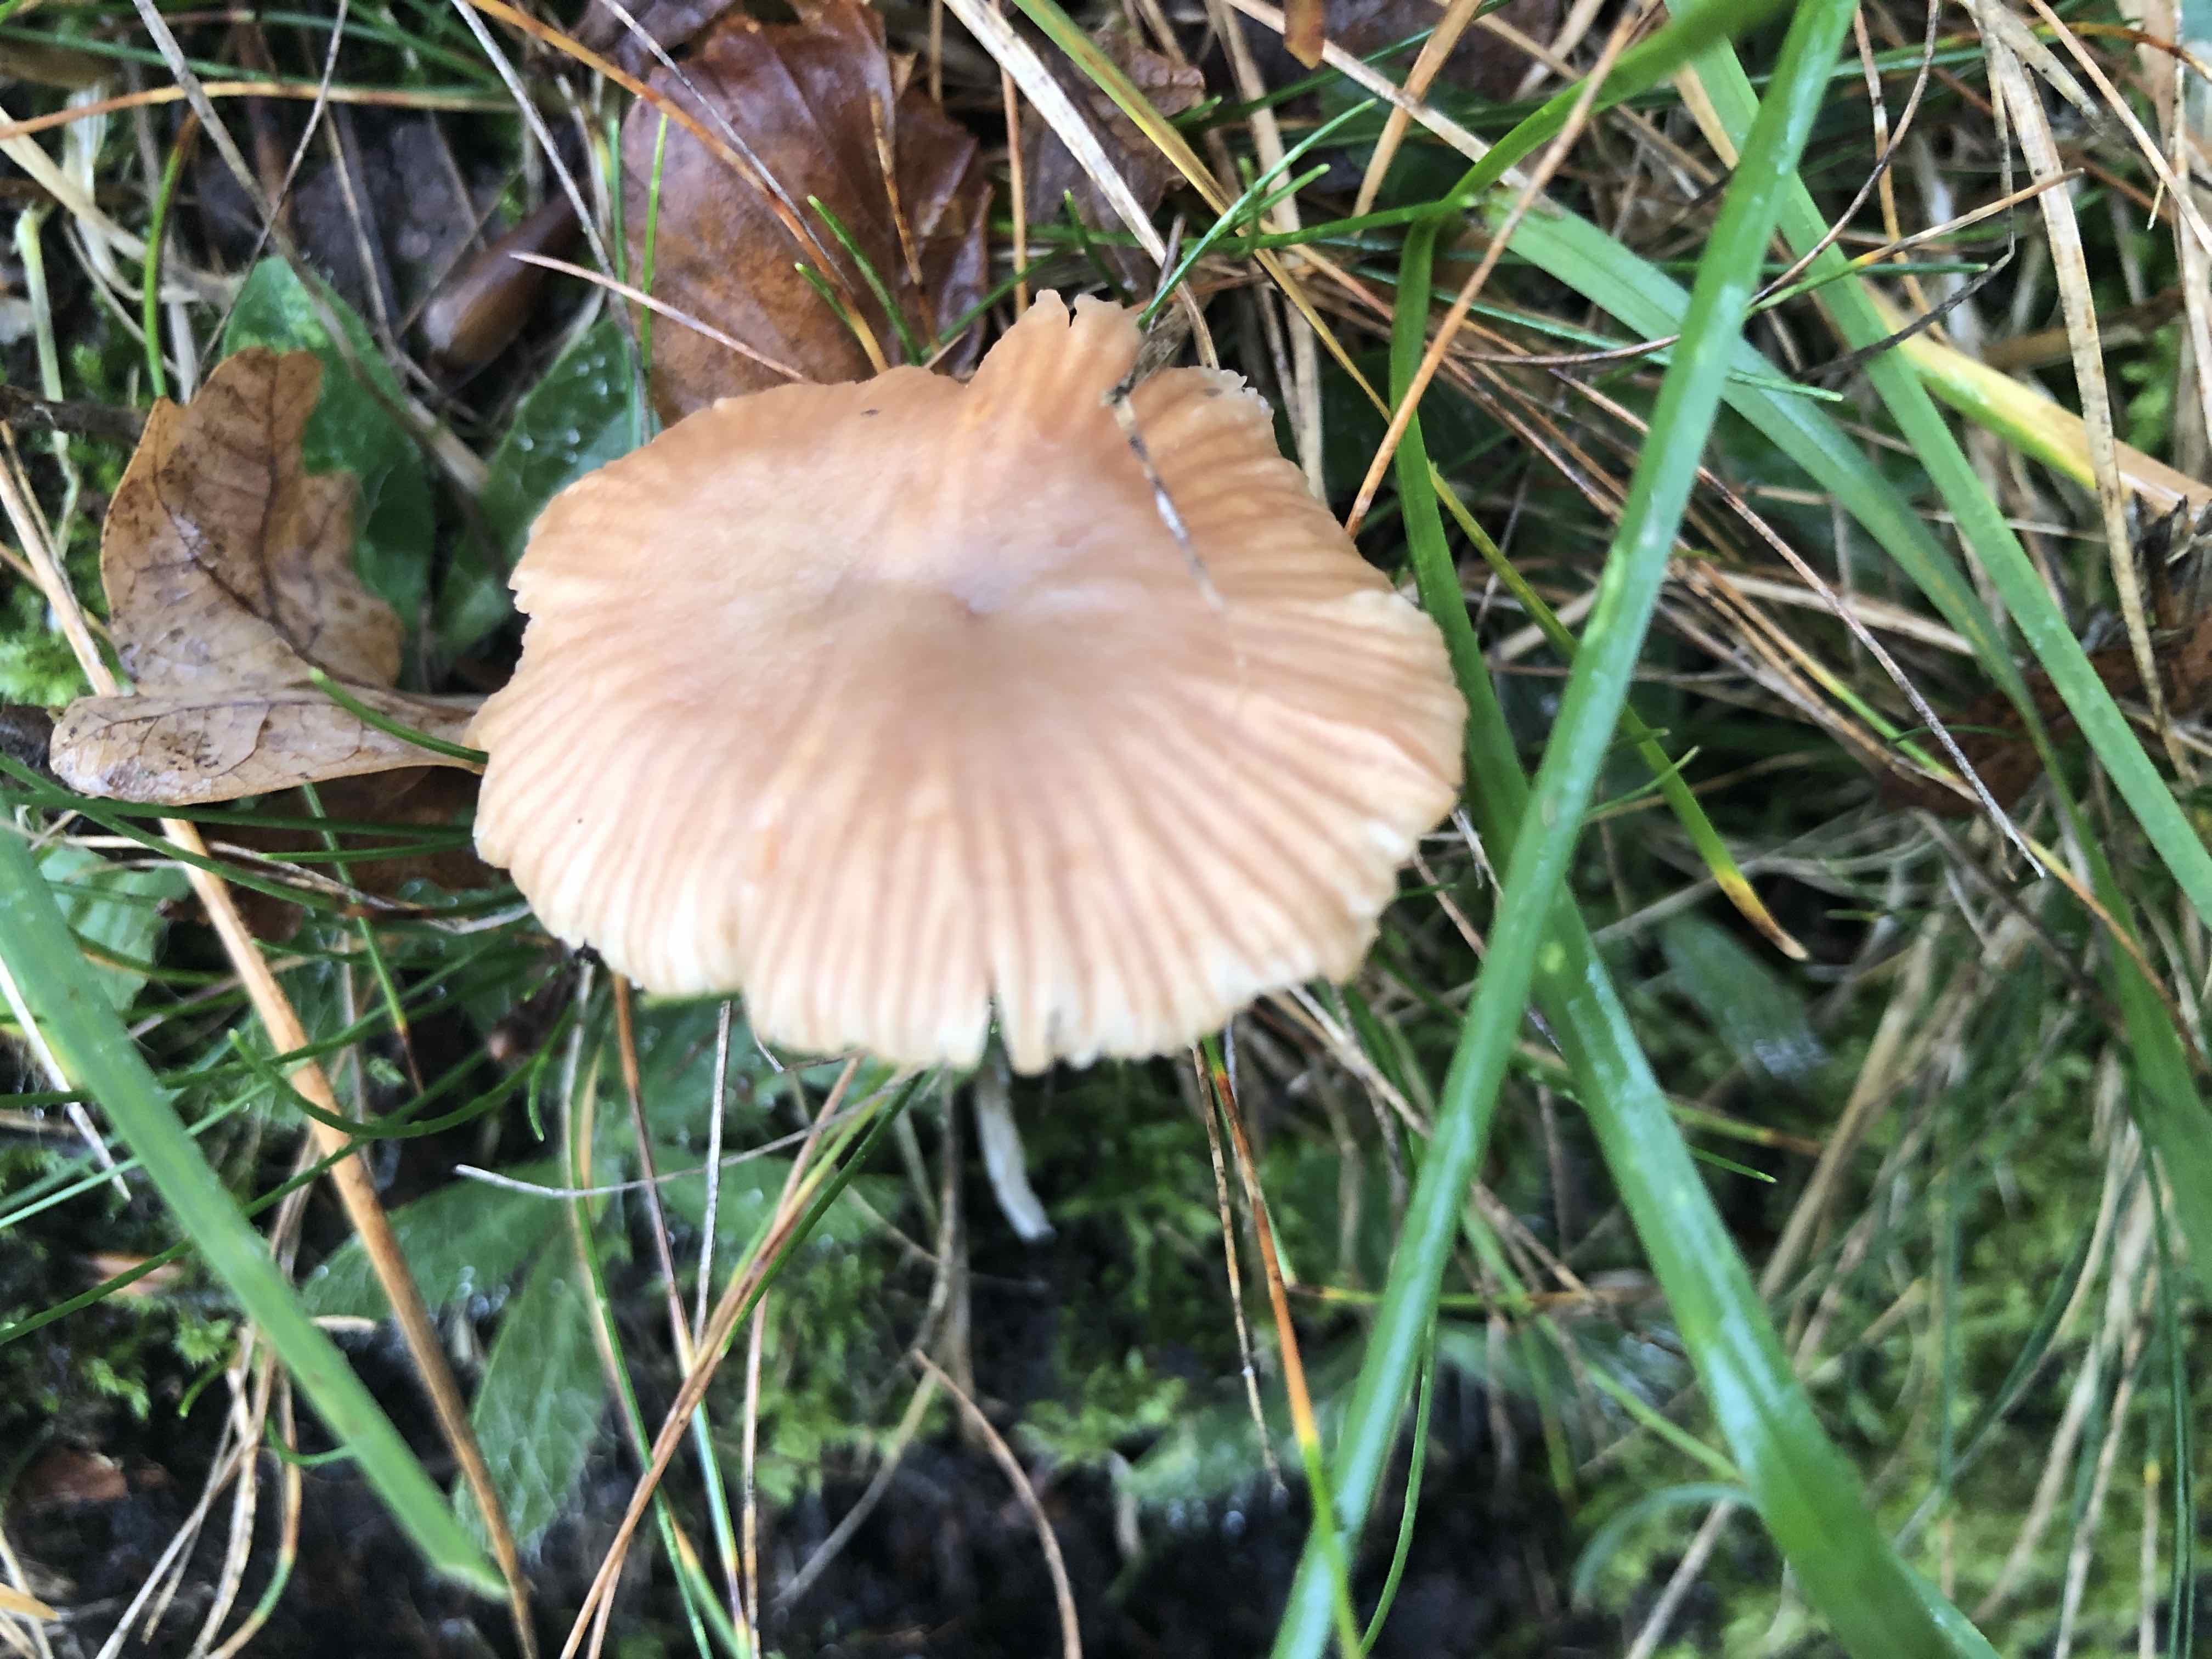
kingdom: Fungi
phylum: Basidiomycota
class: Agaricomycetes
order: Agaricales
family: Hydnangiaceae
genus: Laccaria
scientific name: Laccaria laccata
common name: rød ametysthat
